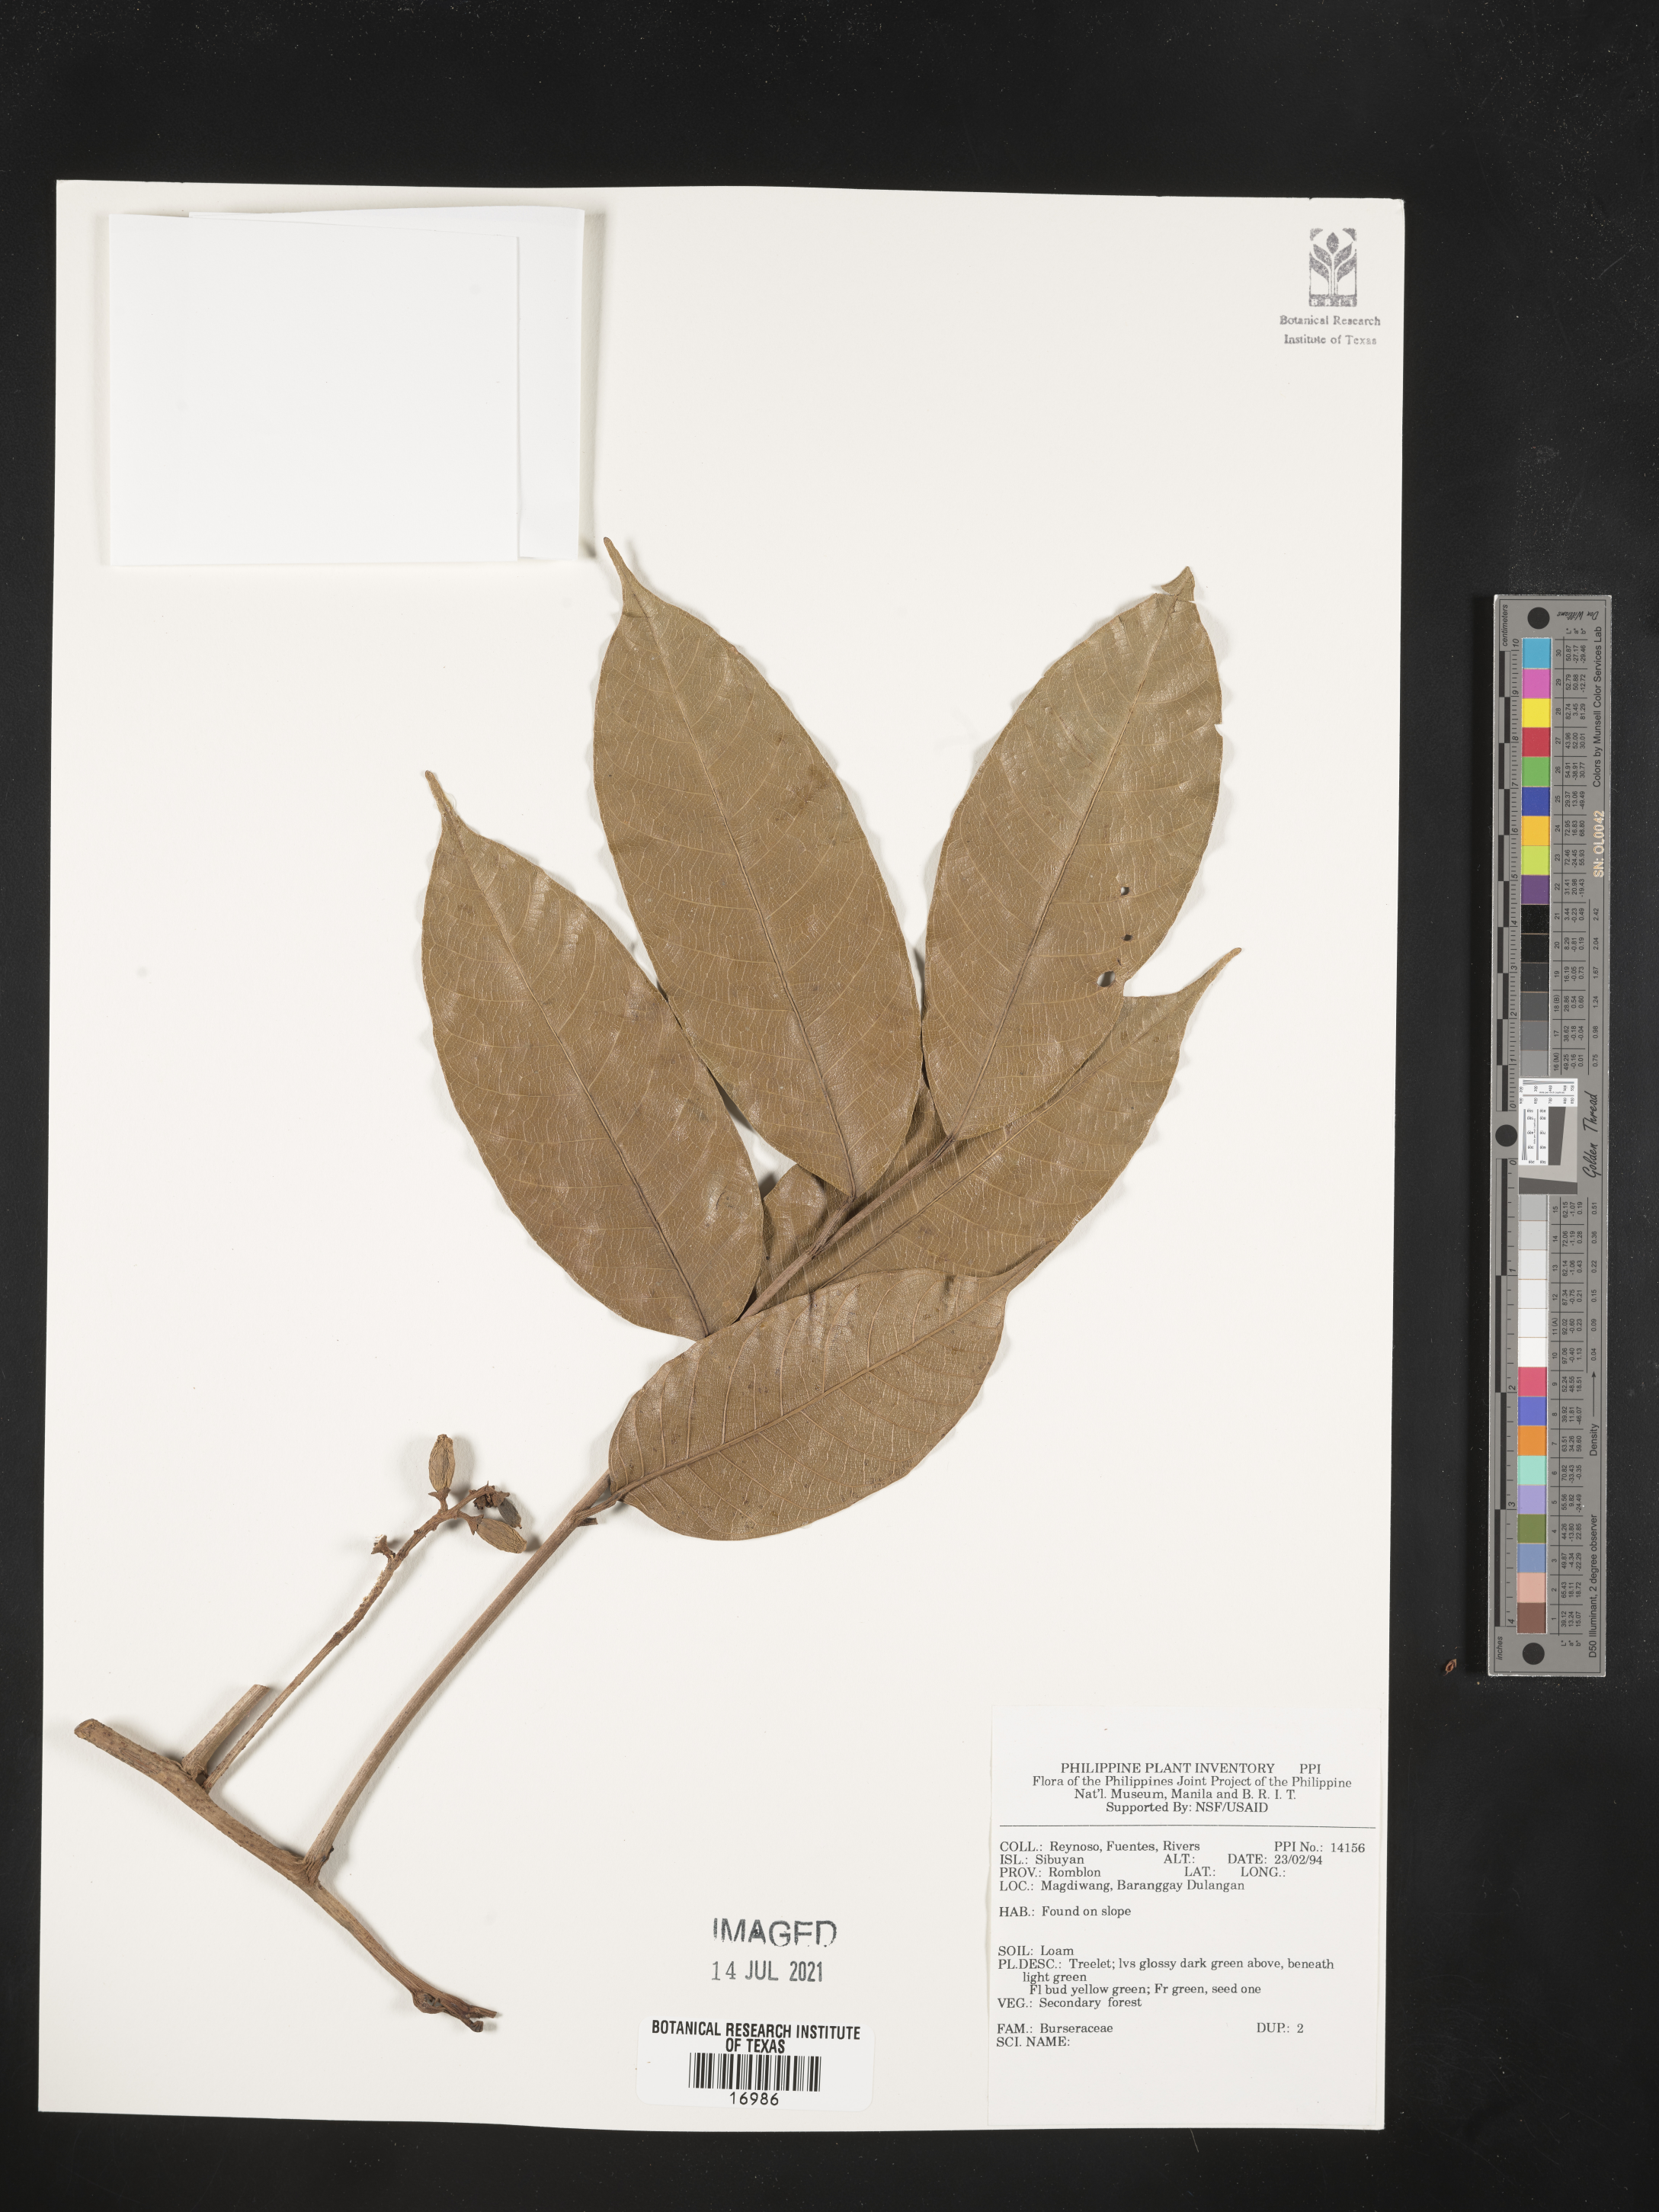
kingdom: Plantae
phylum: Tracheophyta
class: Magnoliopsida
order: Sapindales
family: Burseraceae
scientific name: Burseraceae
